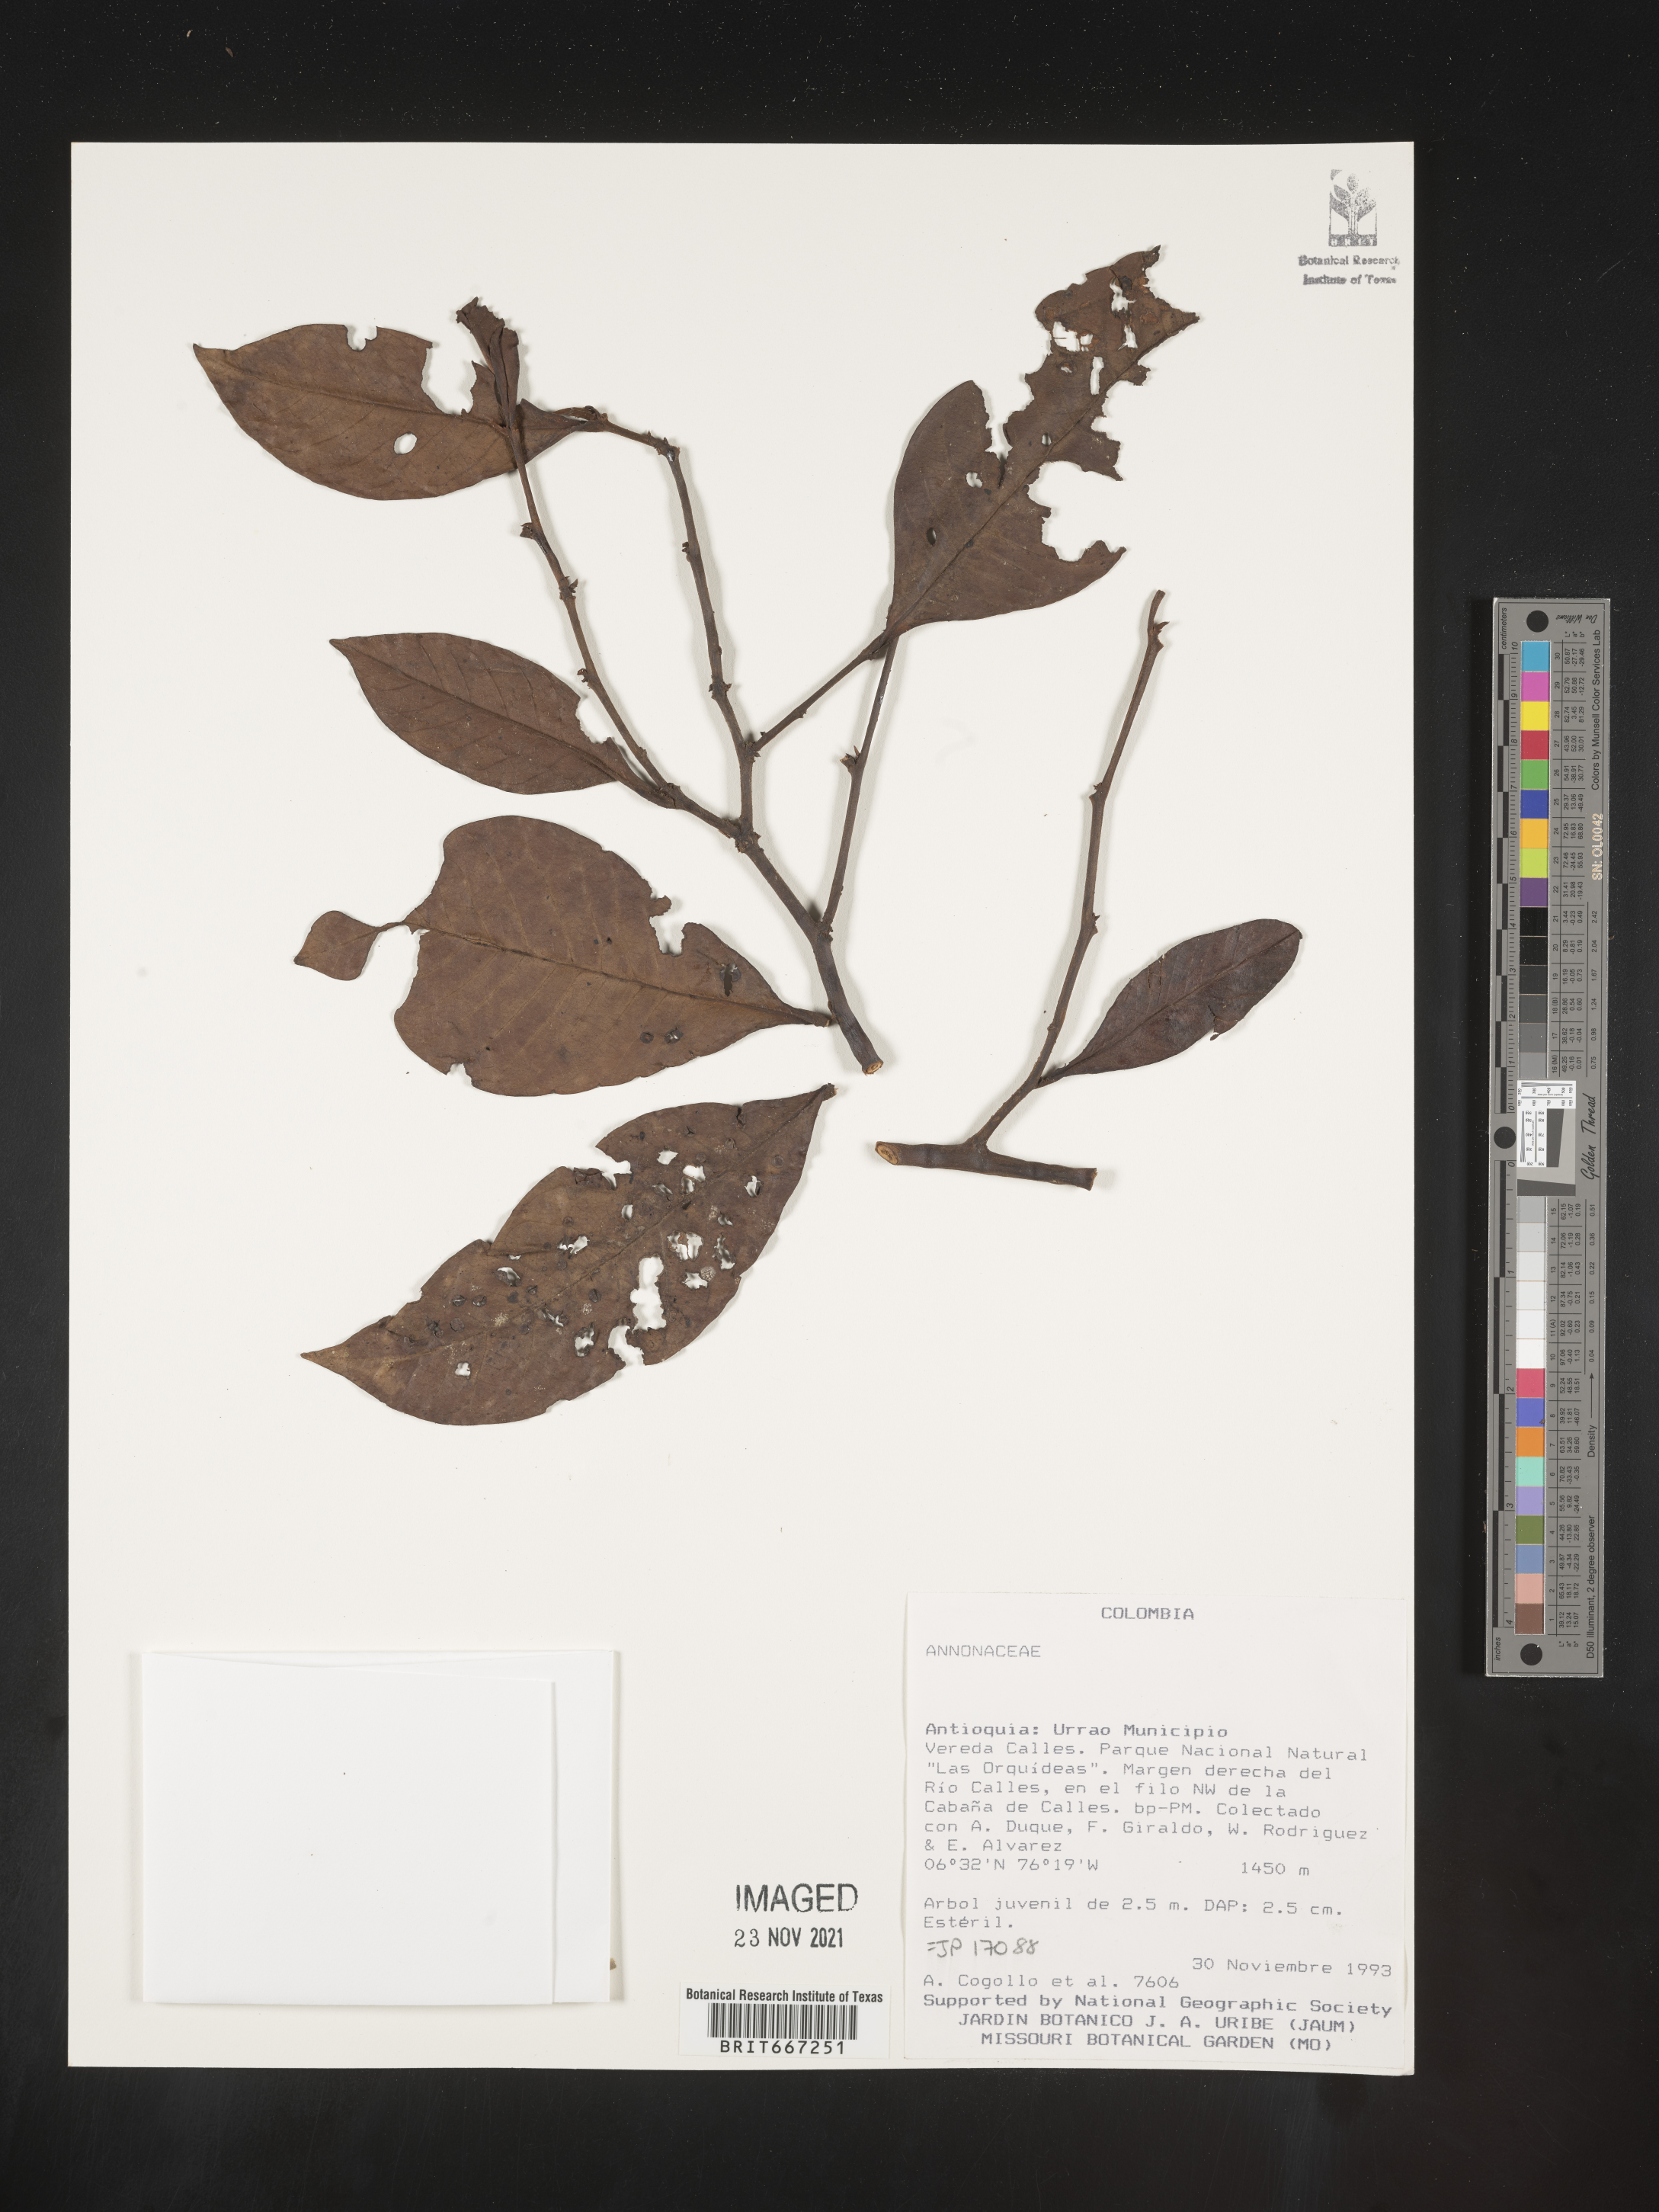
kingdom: Plantae
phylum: Tracheophyta
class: Magnoliopsida
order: Magnoliales
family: Annonaceae
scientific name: Annonaceae
